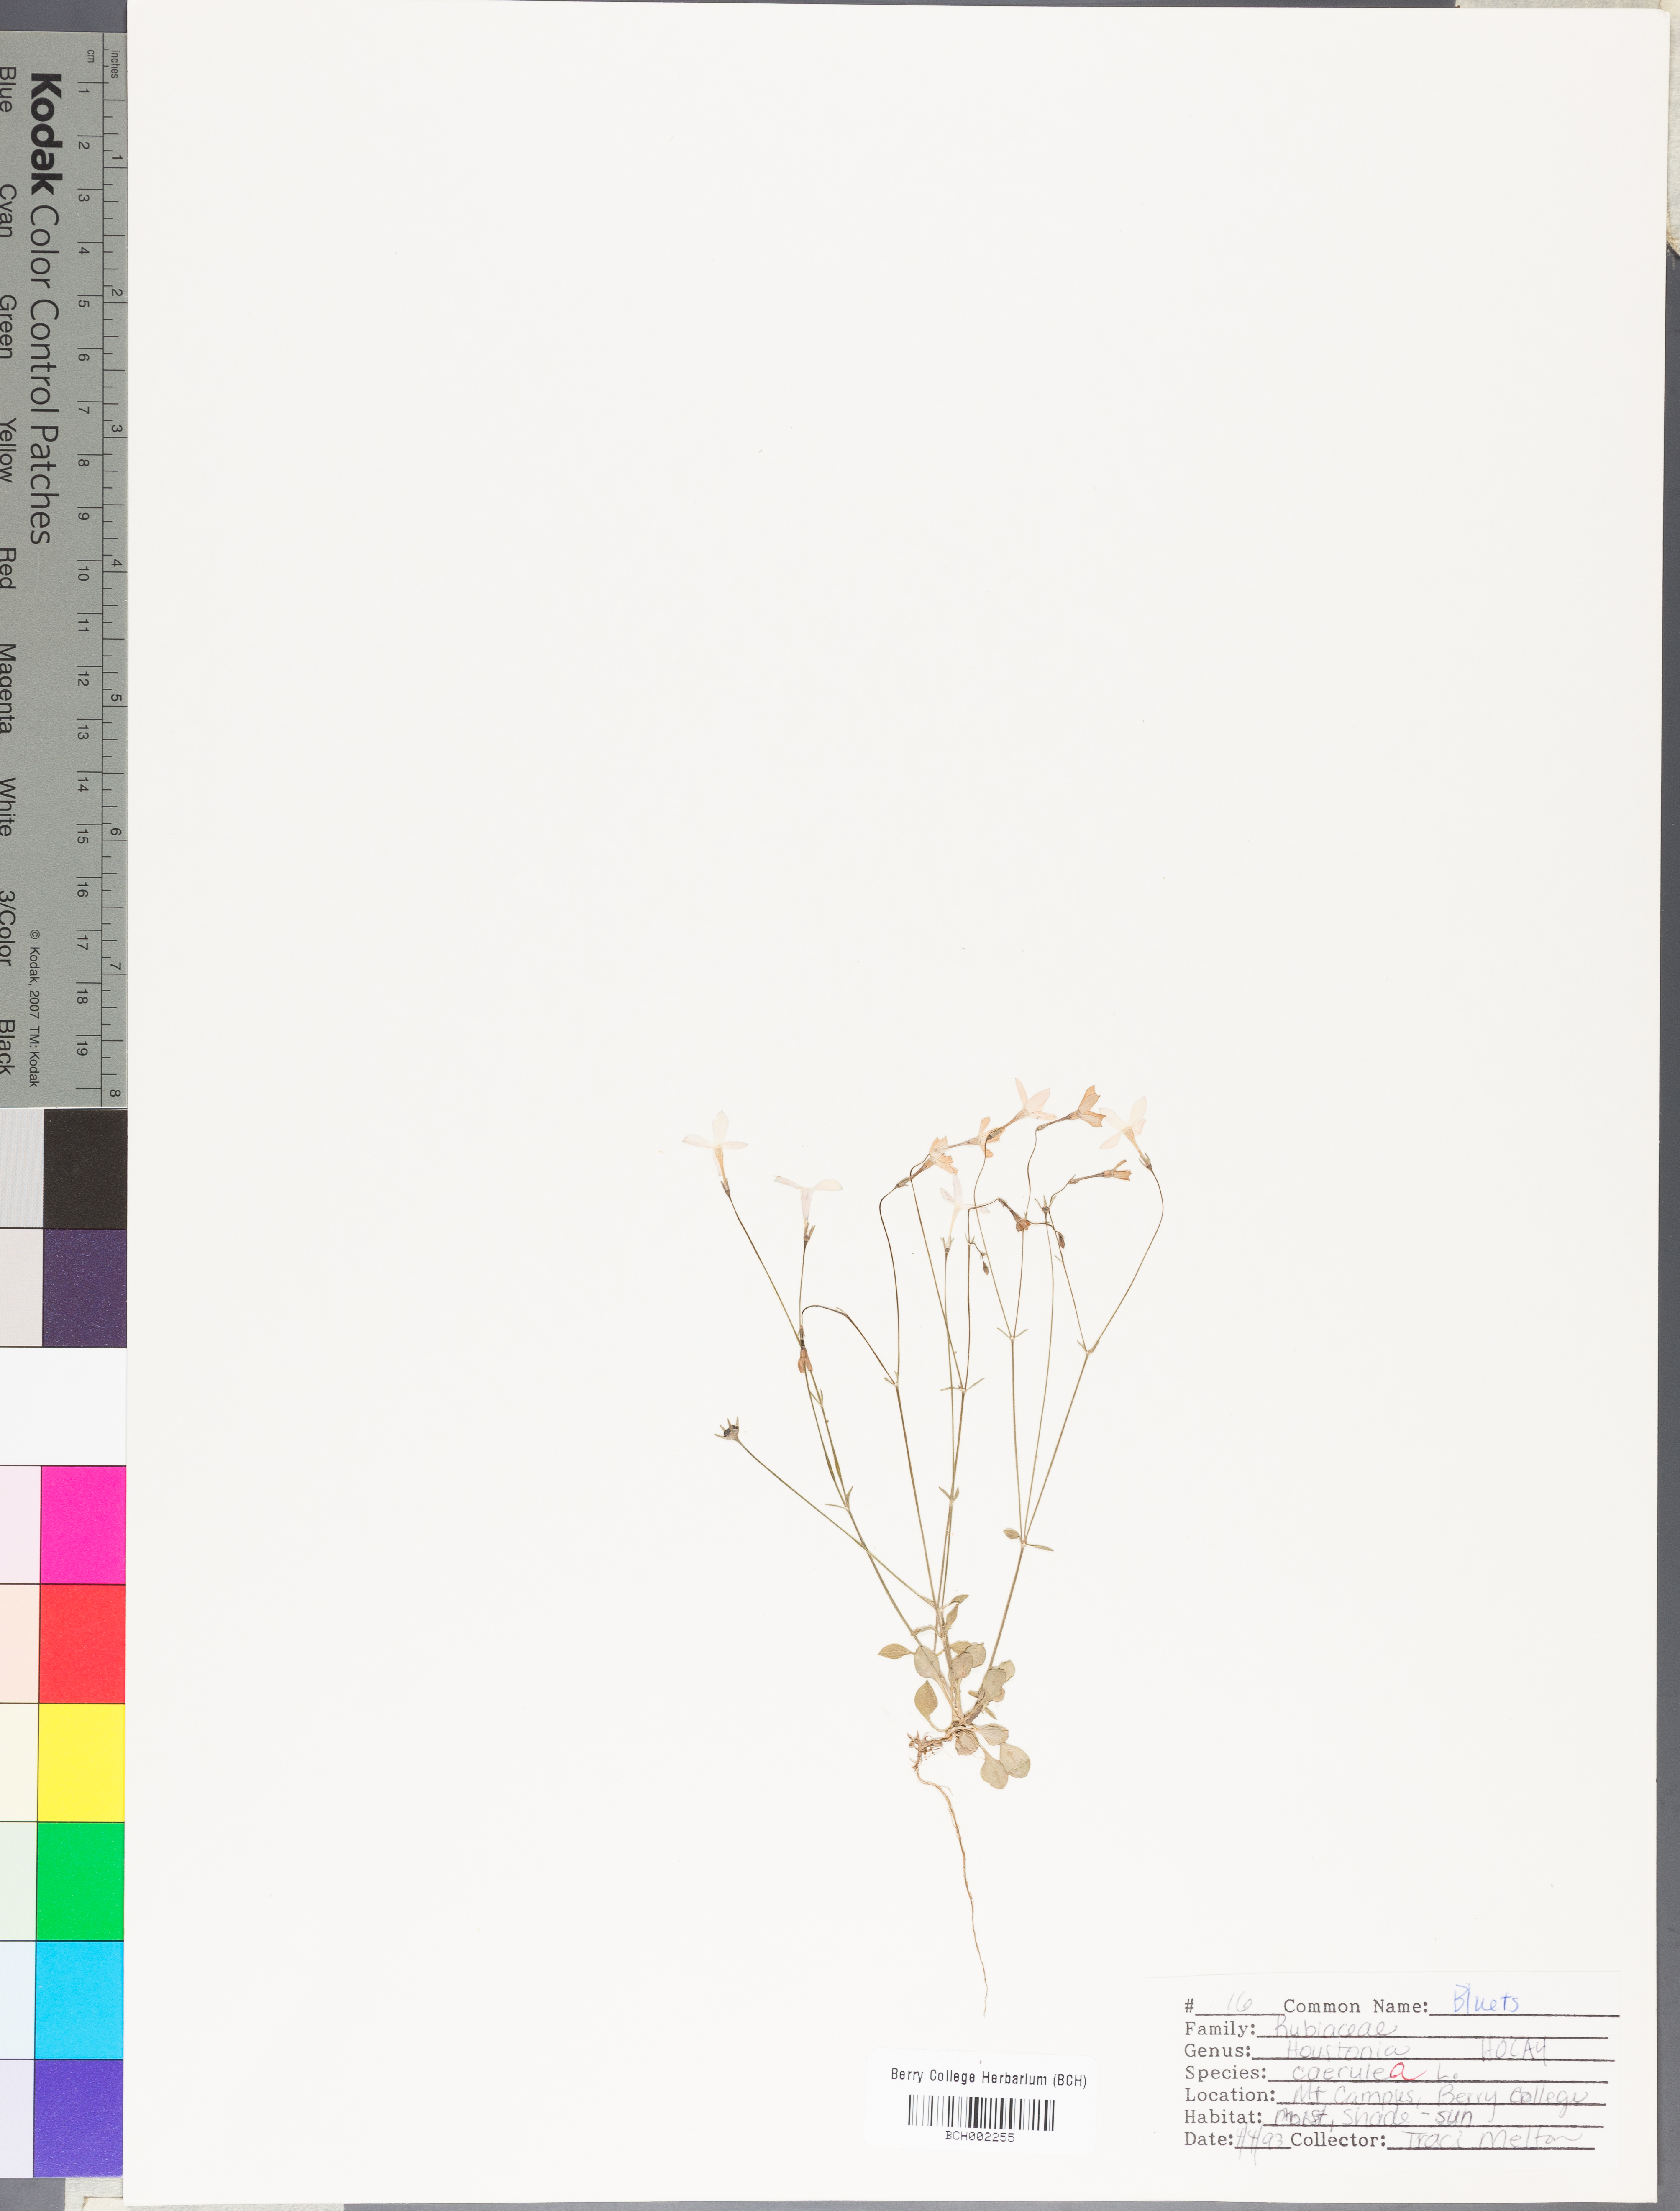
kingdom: Plantae
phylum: Tracheophyta
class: Magnoliopsida
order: Gentianales
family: Rubiaceae
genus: Houstonia
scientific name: Houstonia caerulea
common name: Bluets
